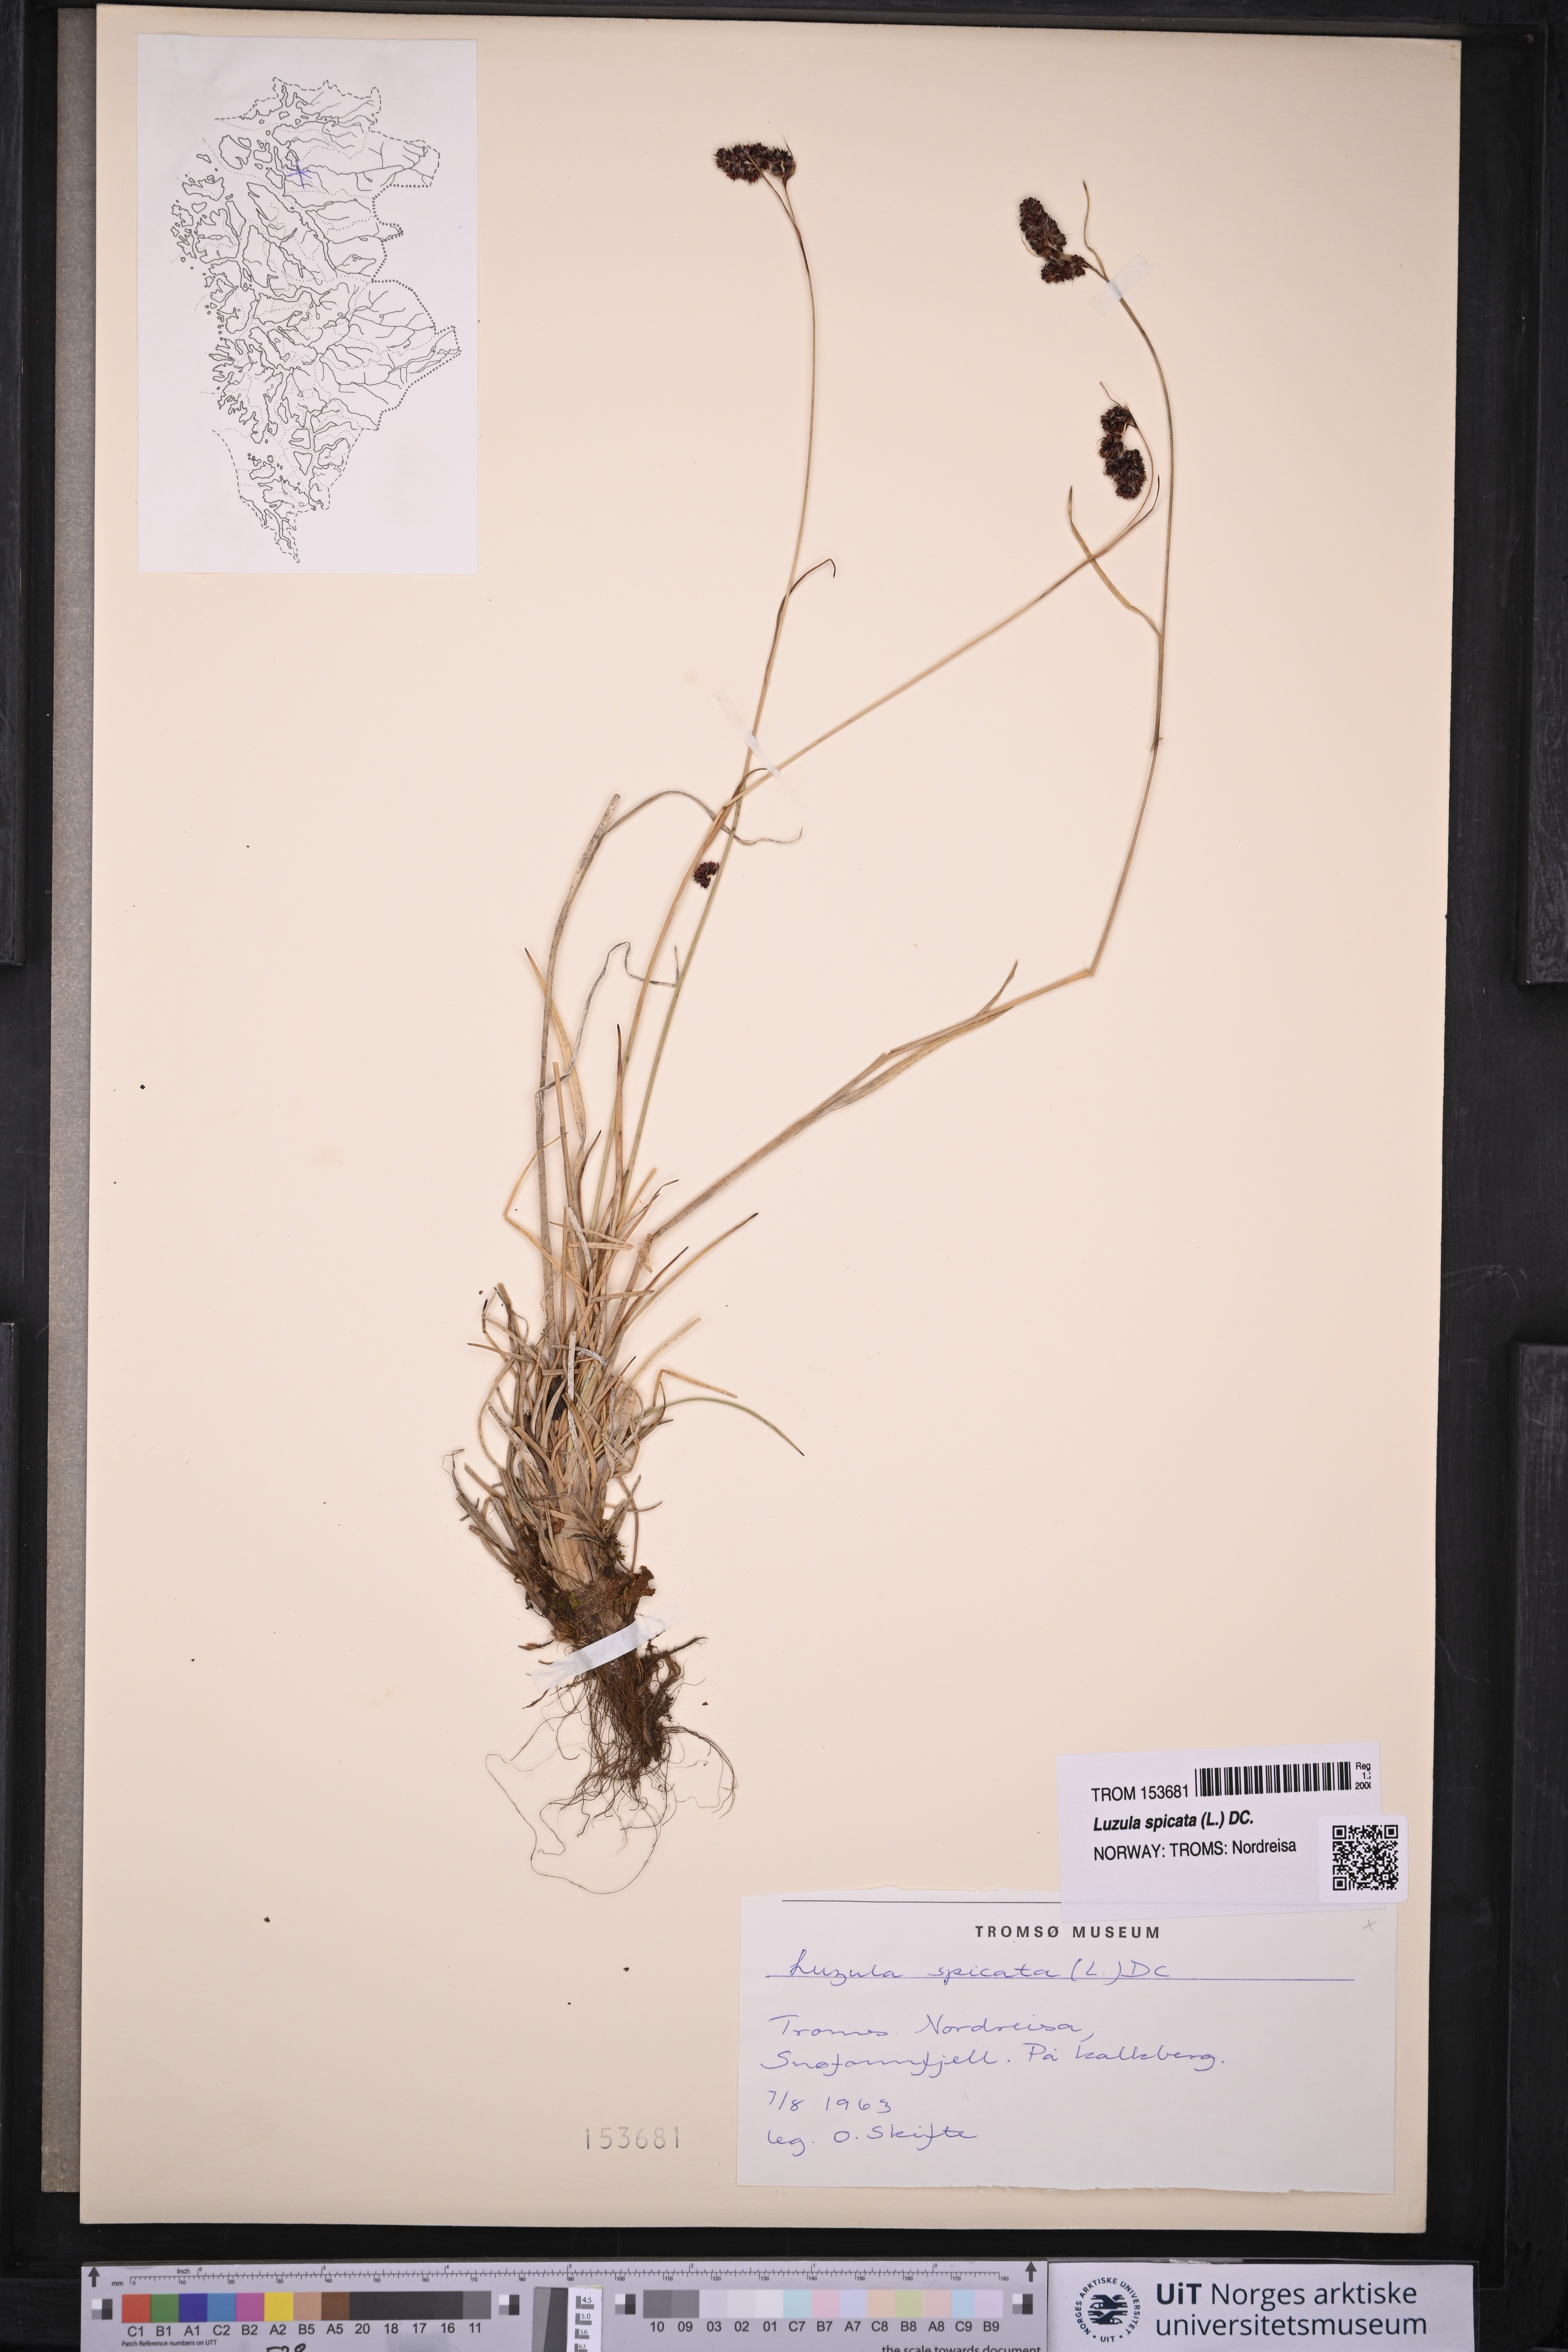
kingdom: Plantae
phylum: Tracheophyta
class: Liliopsida
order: Poales
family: Juncaceae
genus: Luzula
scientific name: Luzula spicata
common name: Spiked wood-rush
